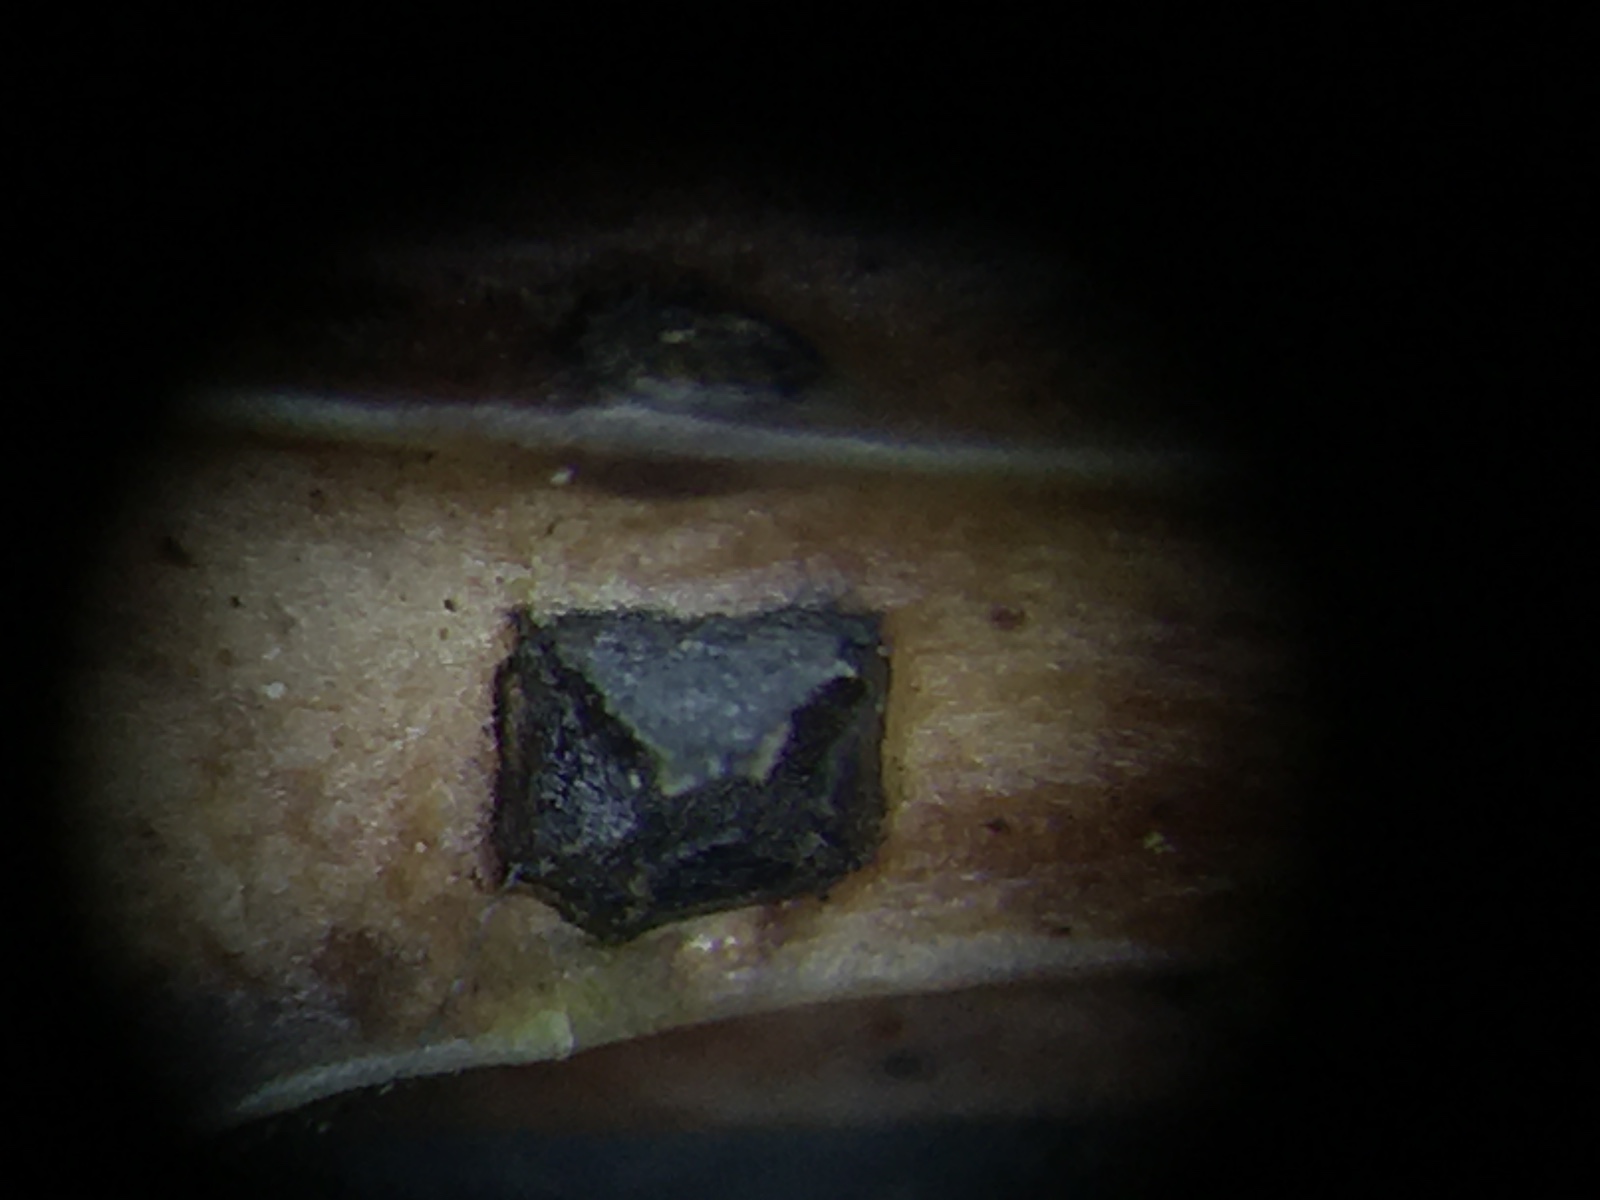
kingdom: Fungi
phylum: Ascomycota
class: Leotiomycetes
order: Rhytismatales
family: Rhytismataceae
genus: Coccomyces
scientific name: Coccomyces leptideus
